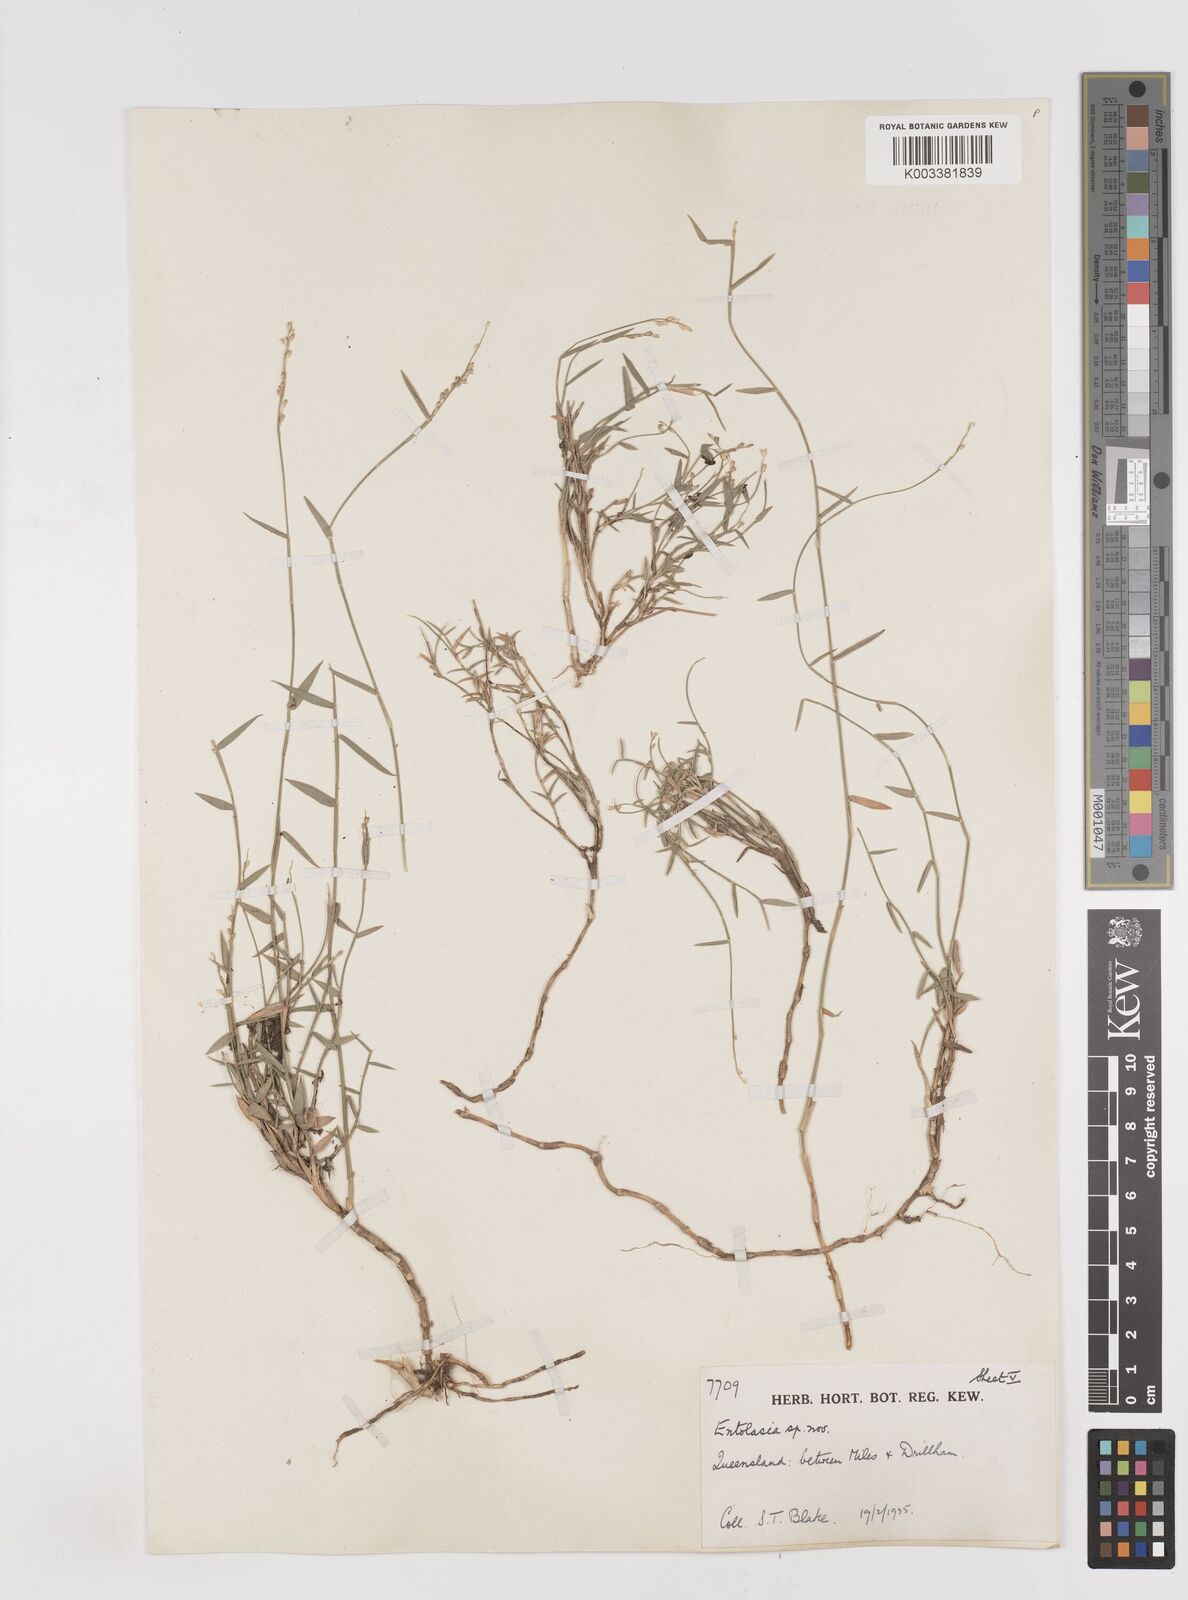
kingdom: Plantae
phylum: Tracheophyta
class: Liliopsida
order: Poales
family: Poaceae
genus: Entolasia
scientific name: Entolasia
